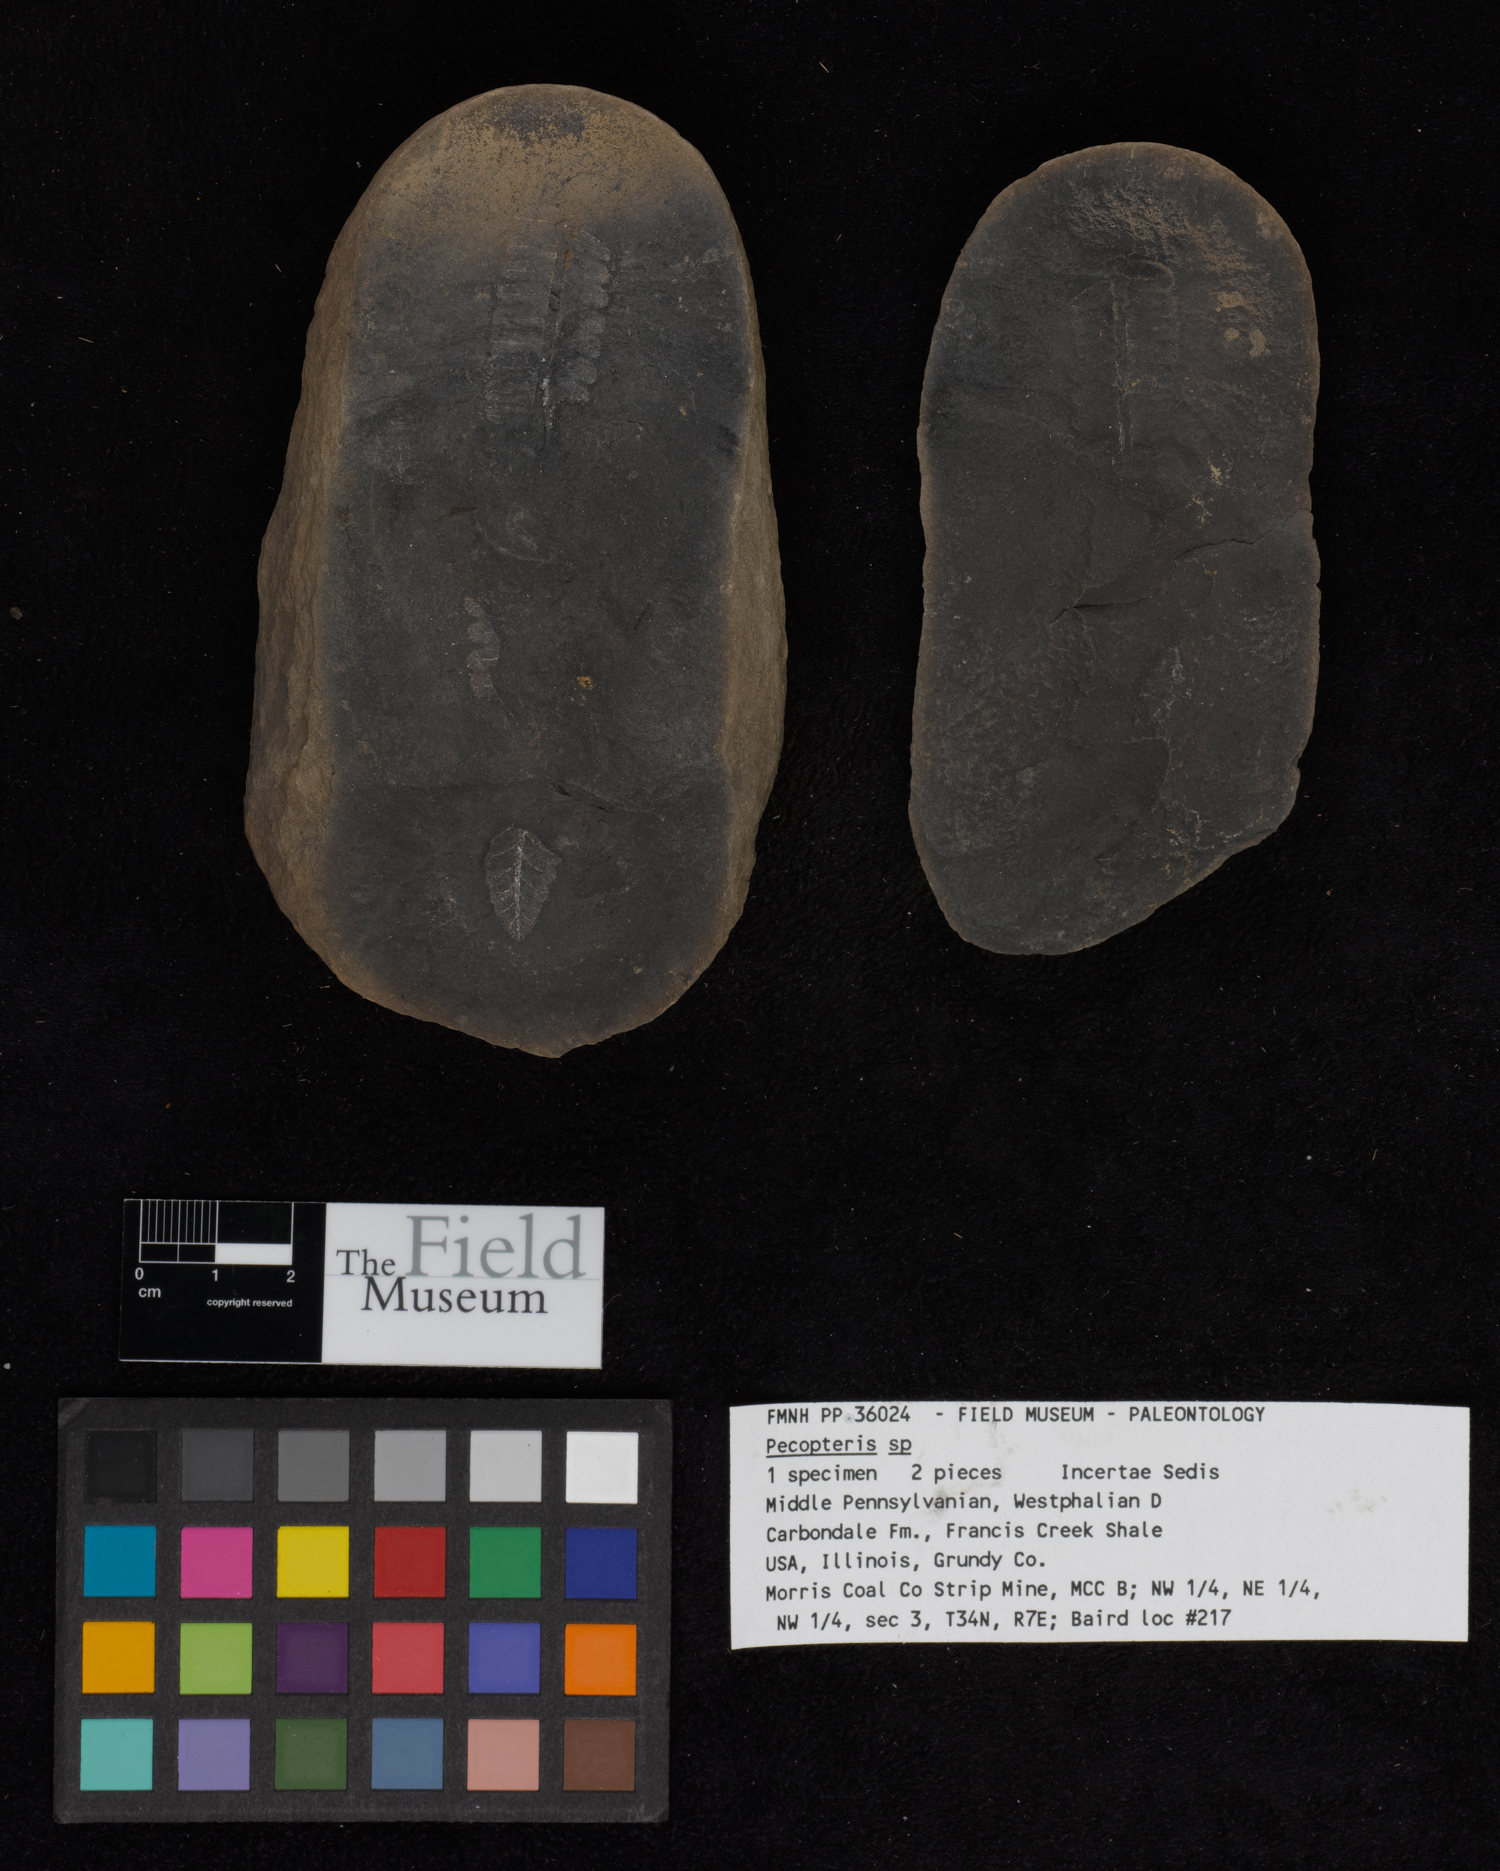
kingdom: Plantae
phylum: Tracheophyta
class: Polypodiopsida
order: Marattiales
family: Asterothecaceae
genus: Pecopteris
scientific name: Pecopteris
